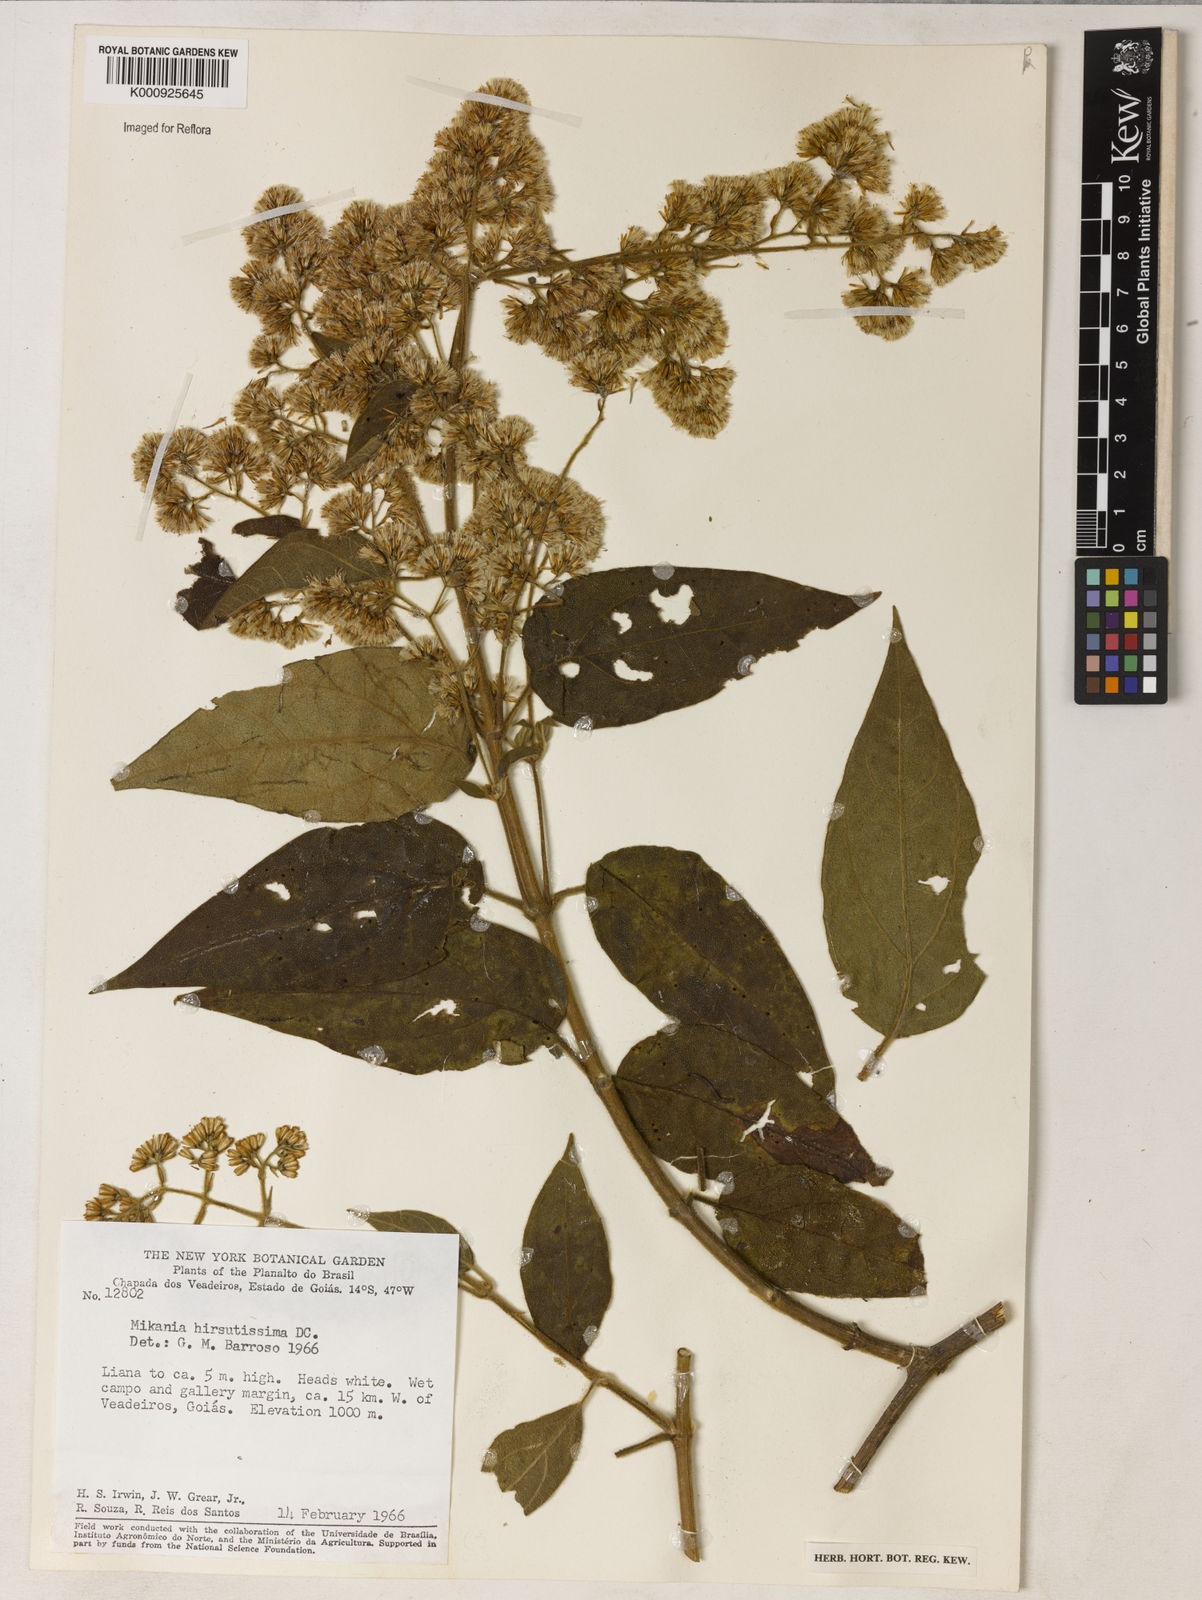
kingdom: Plantae
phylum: Tracheophyta
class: Magnoliopsida
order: Asterales
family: Asteraceae
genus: Mikania
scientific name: Mikania banisteriae
